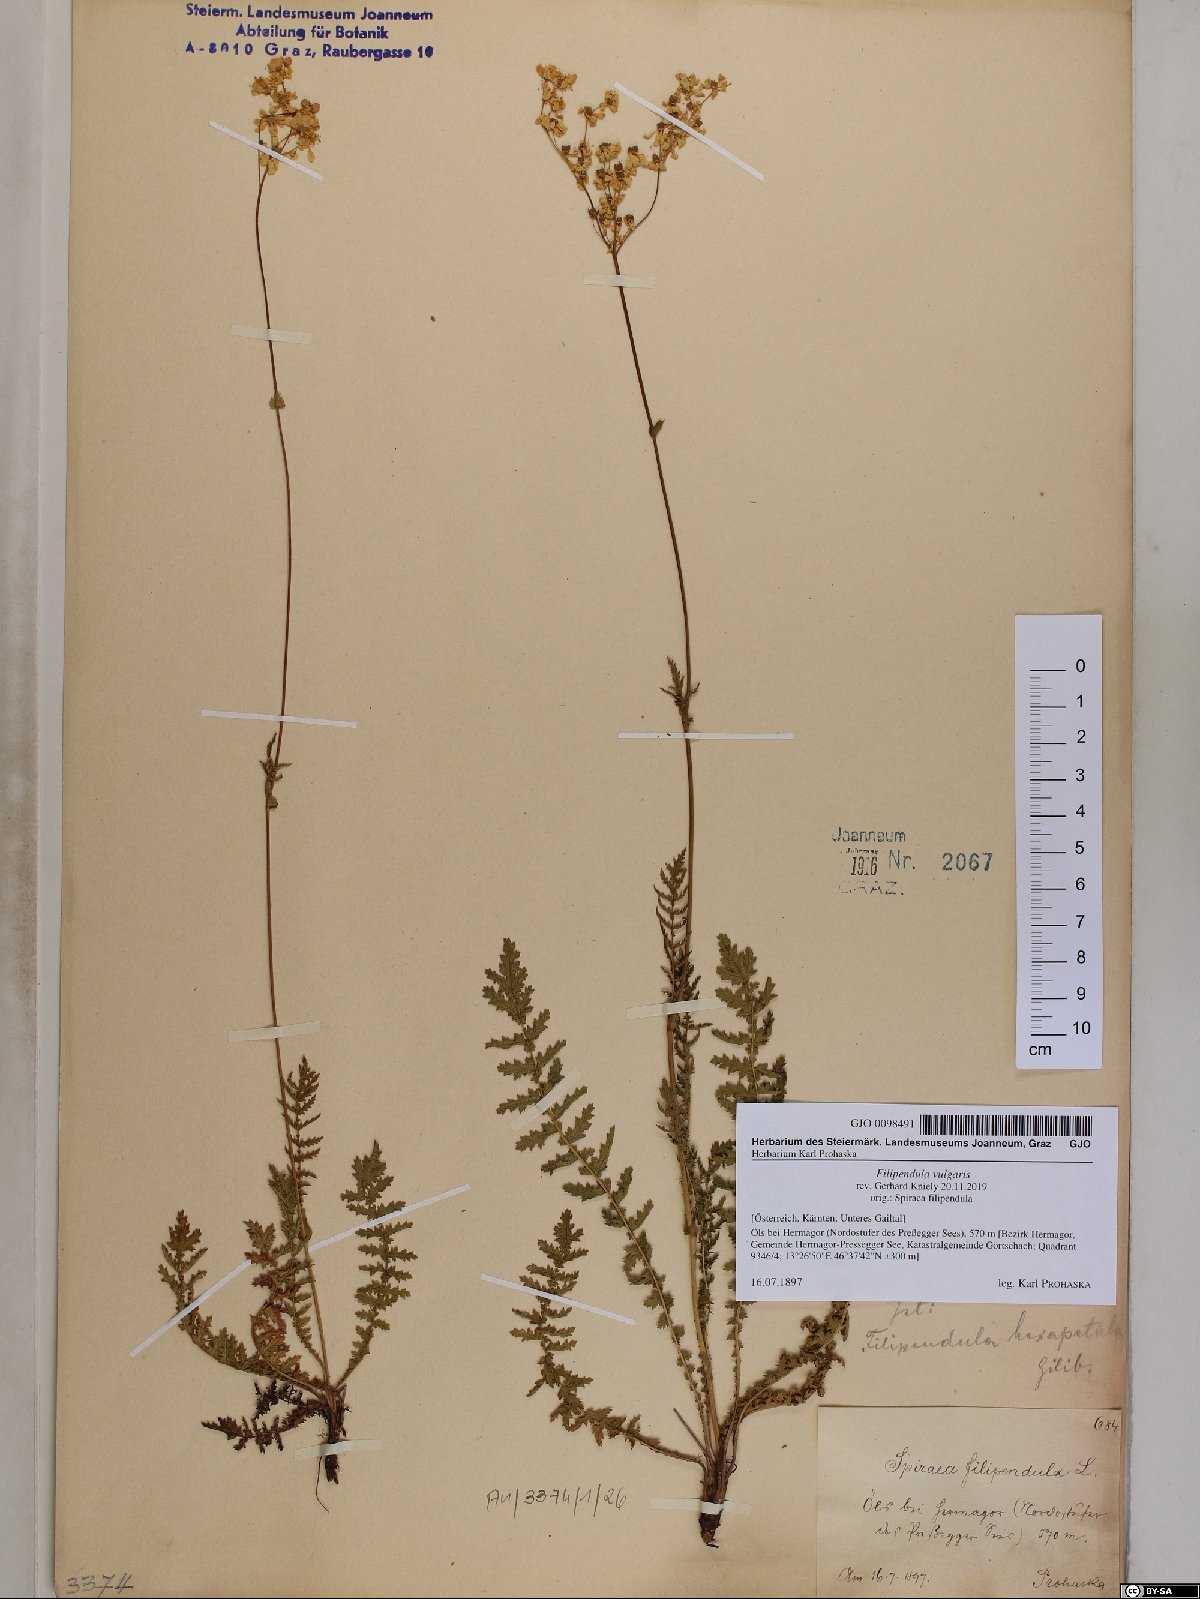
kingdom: Plantae
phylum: Tracheophyta
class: Magnoliopsida
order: Rosales
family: Rosaceae
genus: Filipendula
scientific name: Filipendula vulgaris
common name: Dropwort
